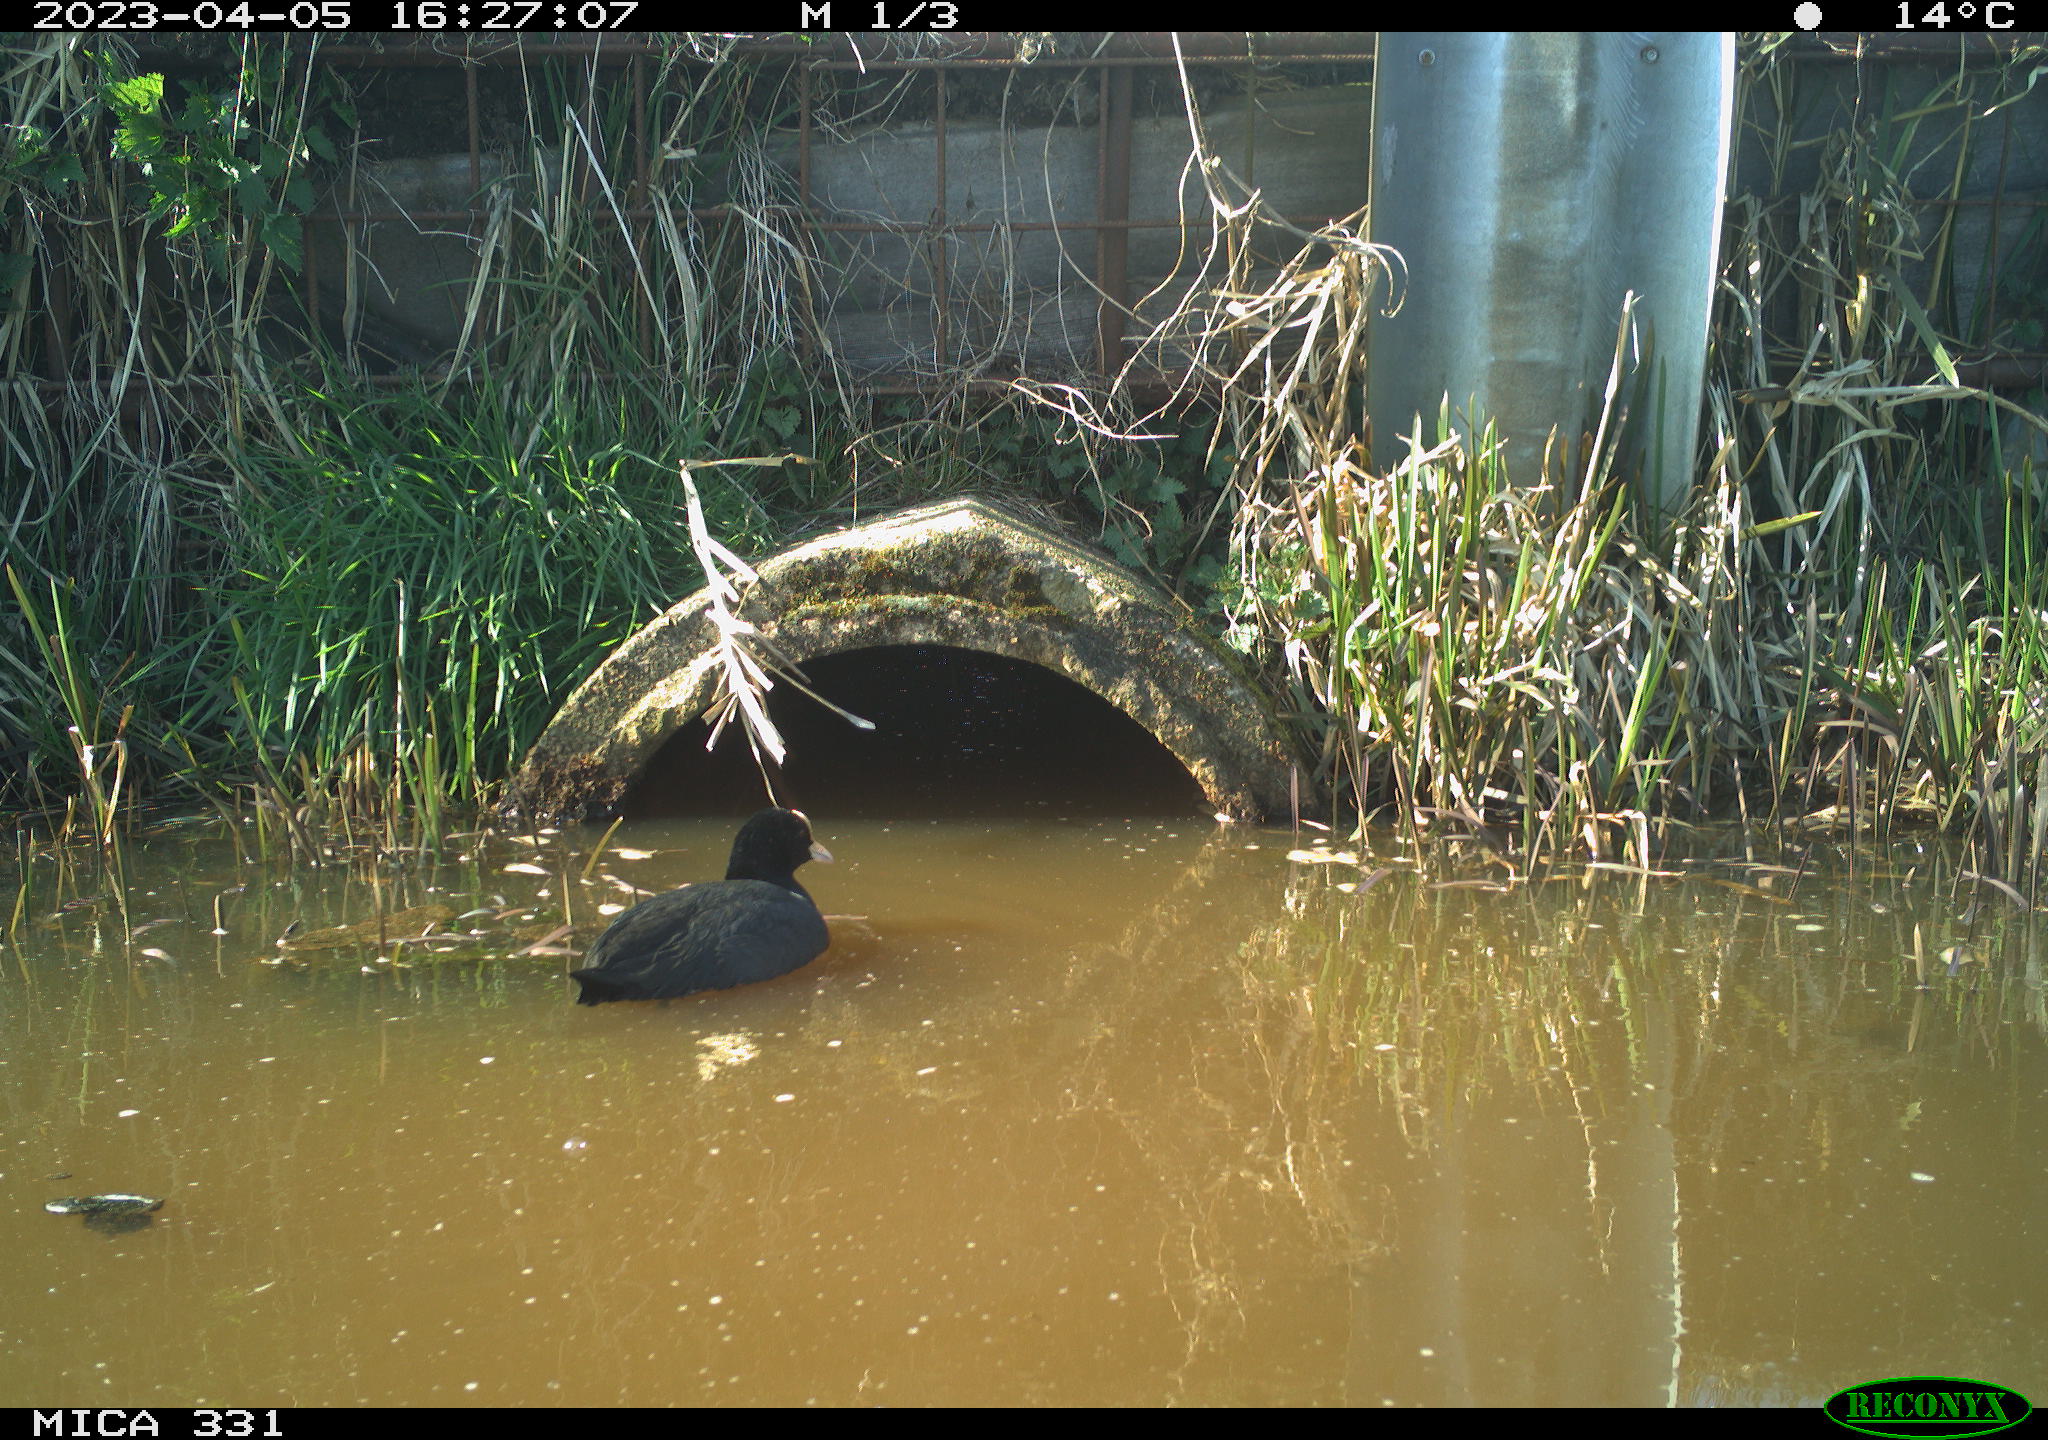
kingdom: Animalia
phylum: Chordata
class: Aves
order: Gruiformes
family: Rallidae
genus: Fulica
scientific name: Fulica atra
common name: Eurasian coot
